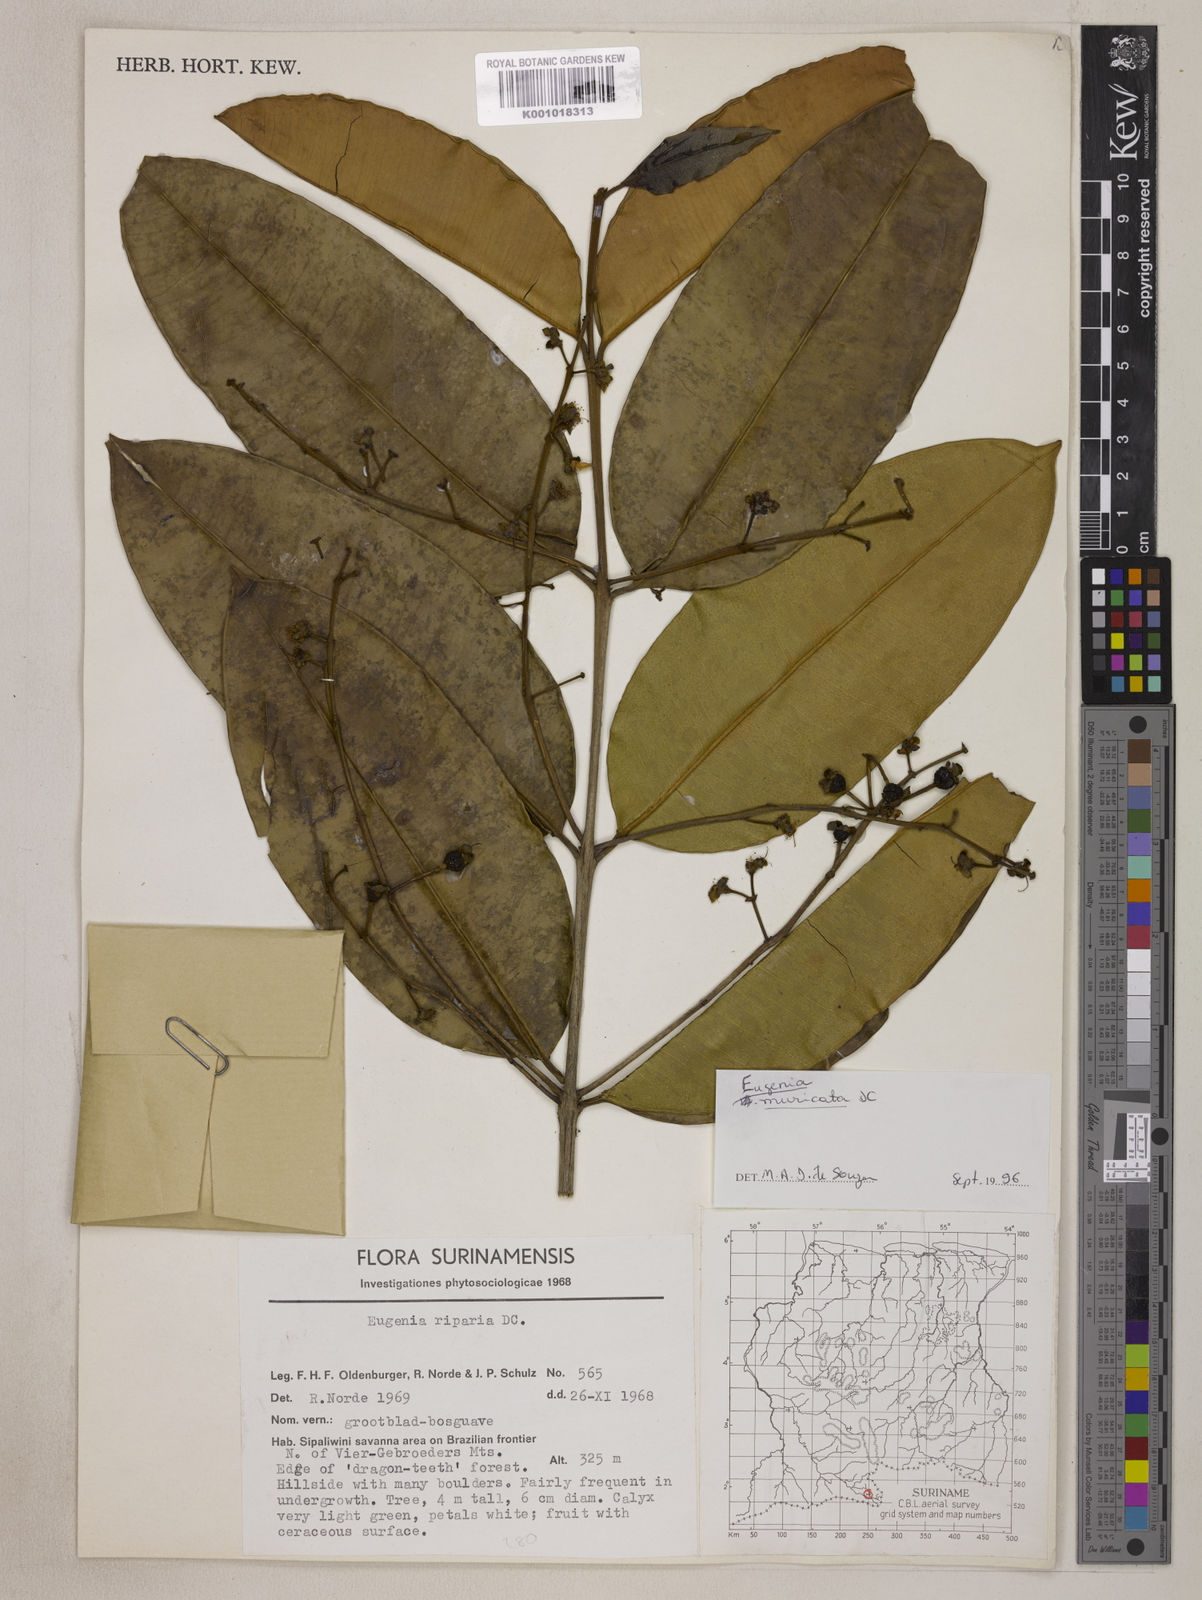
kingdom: Plantae
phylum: Tracheophyta
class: Magnoliopsida
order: Myrtales
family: Myrtaceae
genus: Eugenia
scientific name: Eugenia muricata
